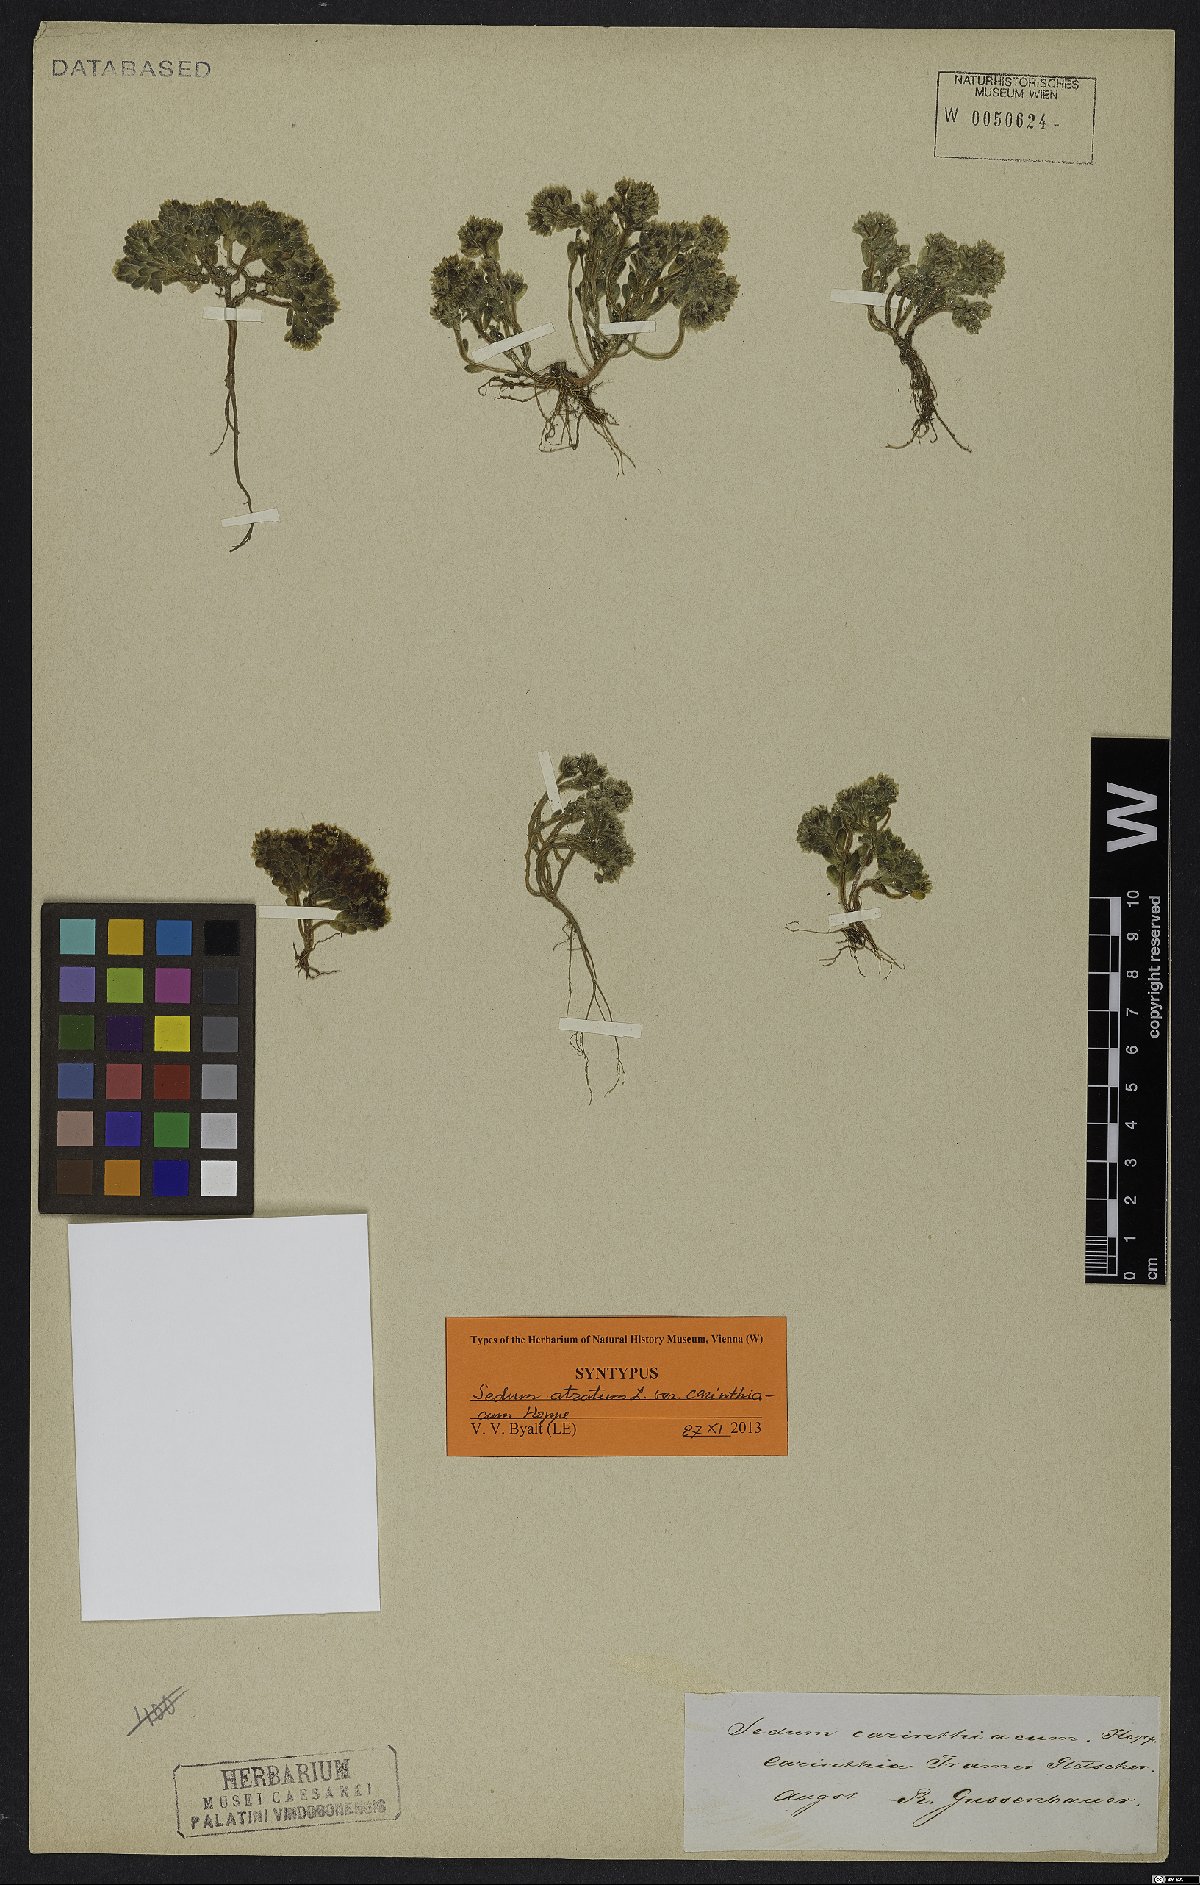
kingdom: Plantae
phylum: Tracheophyta
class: Magnoliopsida
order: Saxifragales
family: Crassulaceae
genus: Sedum
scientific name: Sedum atratum
